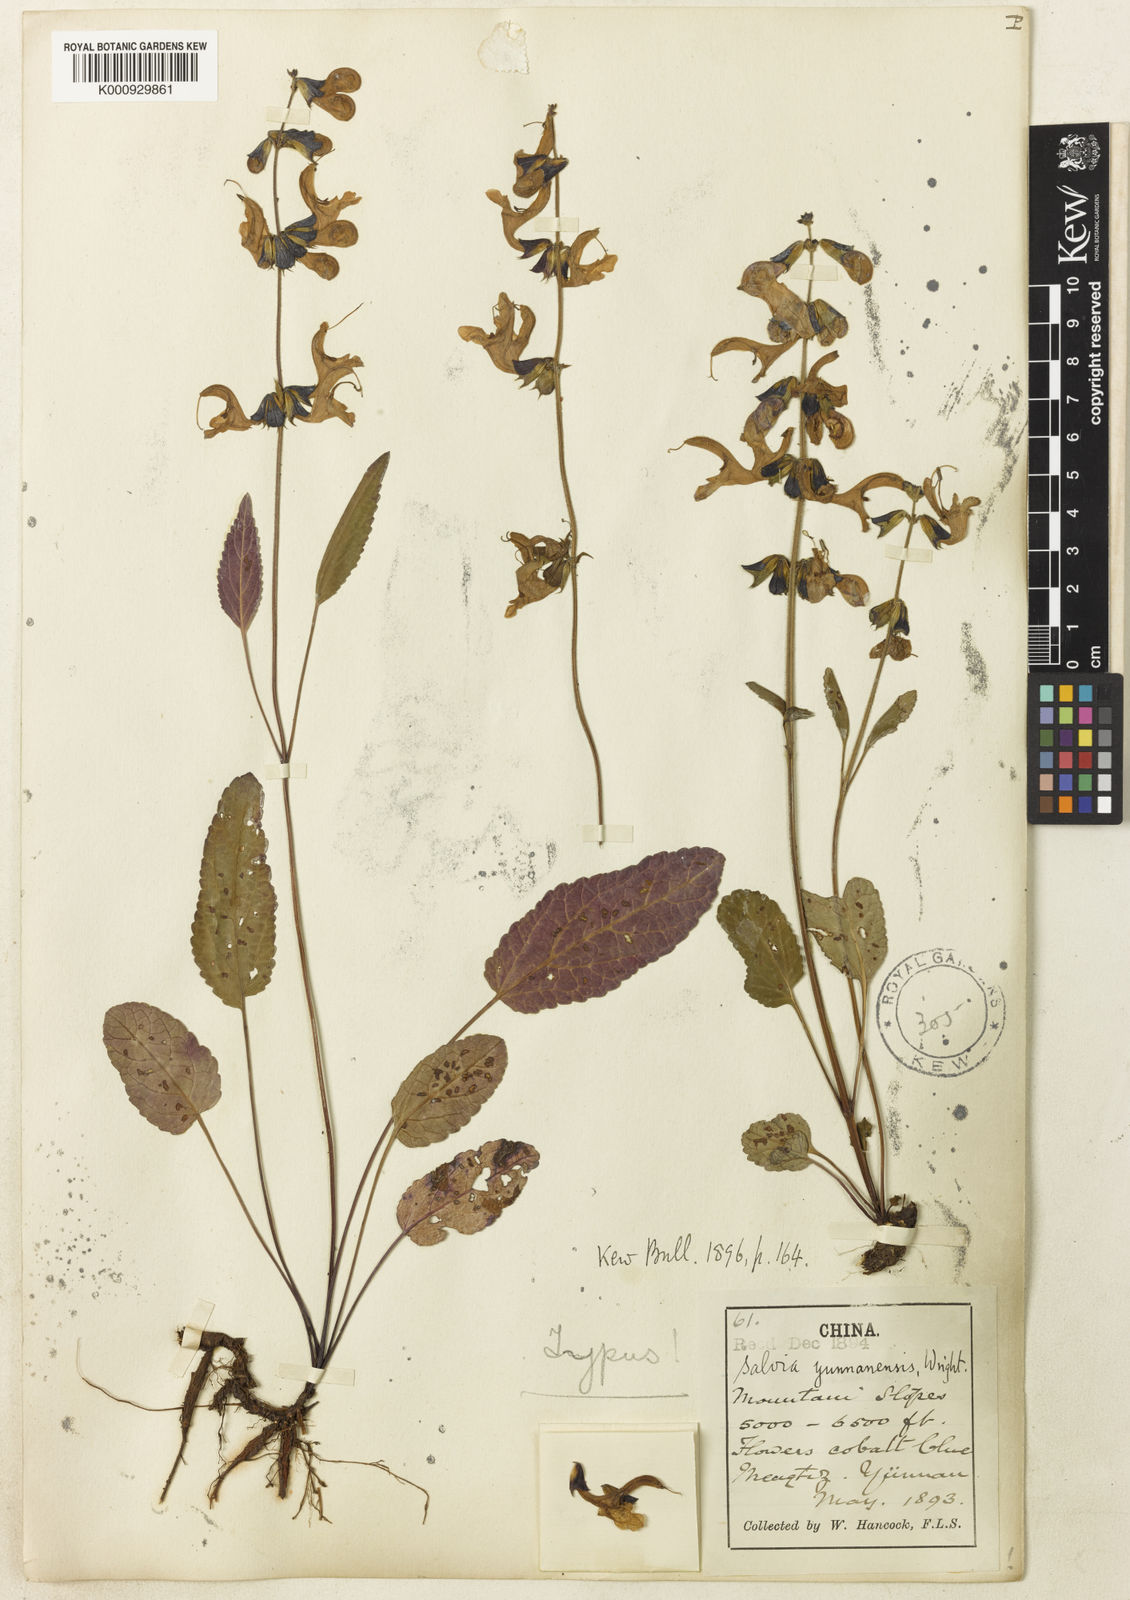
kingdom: Plantae
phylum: Tracheophyta
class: Magnoliopsida
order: Lamiales
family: Lamiaceae
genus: Salvia
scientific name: Salvia yunnanensis
